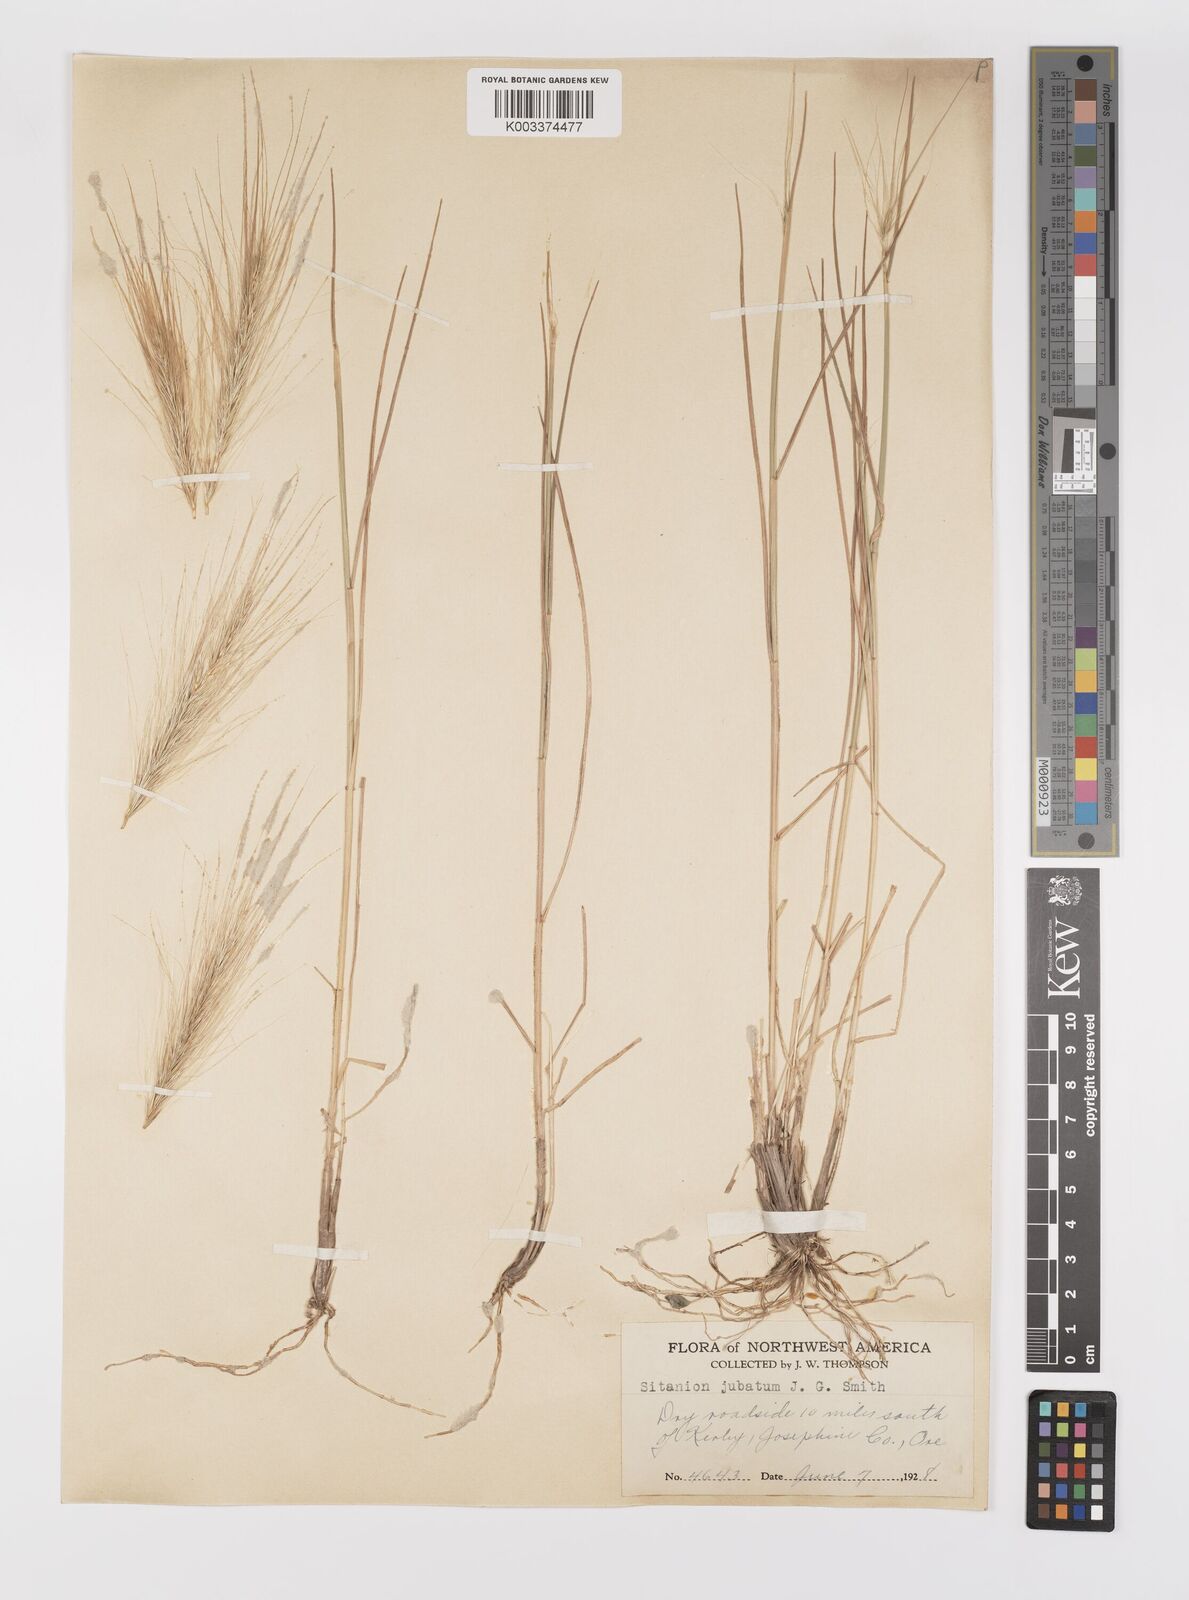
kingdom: Plantae
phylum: Tracheophyta
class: Liliopsida
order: Poales
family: Poaceae
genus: Elymus
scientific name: Elymus multisetus
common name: Big squirreltail
